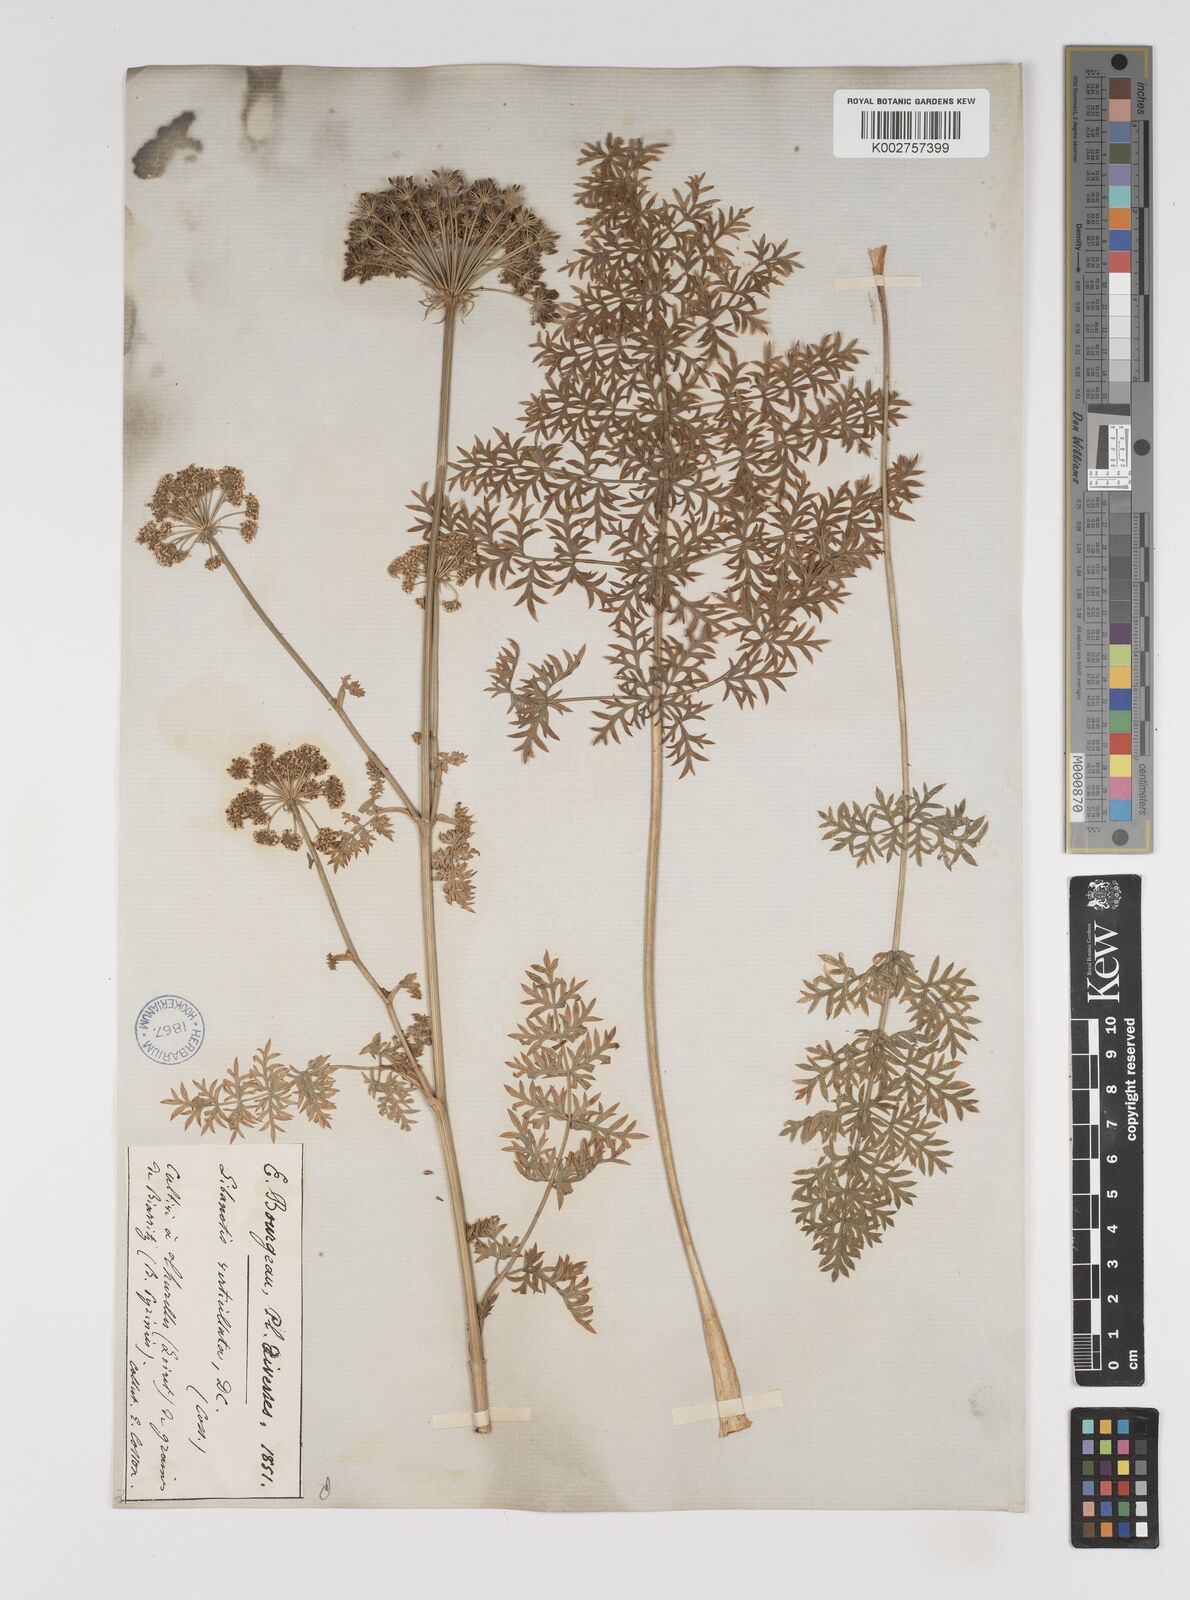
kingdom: Plantae
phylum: Tracheophyta
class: Magnoliopsida
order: Apiales
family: Apiaceae
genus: Seseli
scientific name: Seseli
